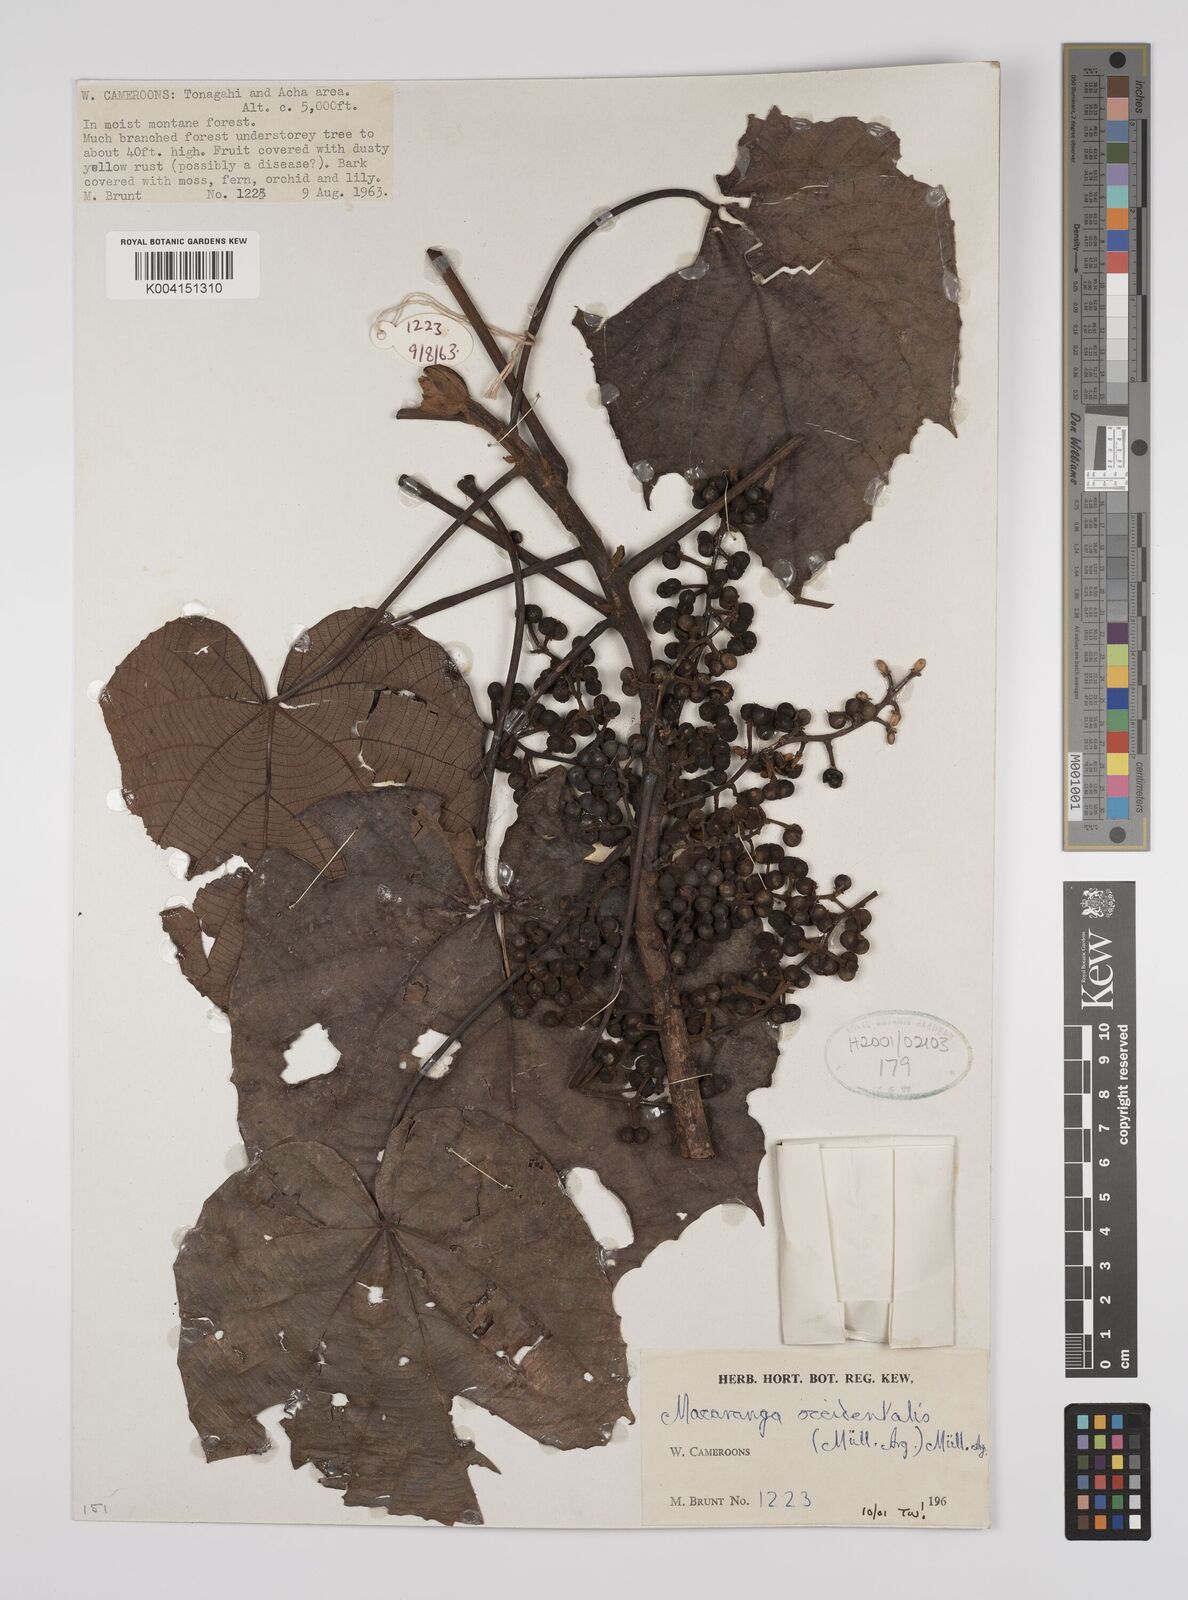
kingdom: Plantae
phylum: Tracheophyta
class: Magnoliopsida
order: Malpighiales
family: Euphorbiaceae
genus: Macaranga
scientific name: Macaranga occidentalis
